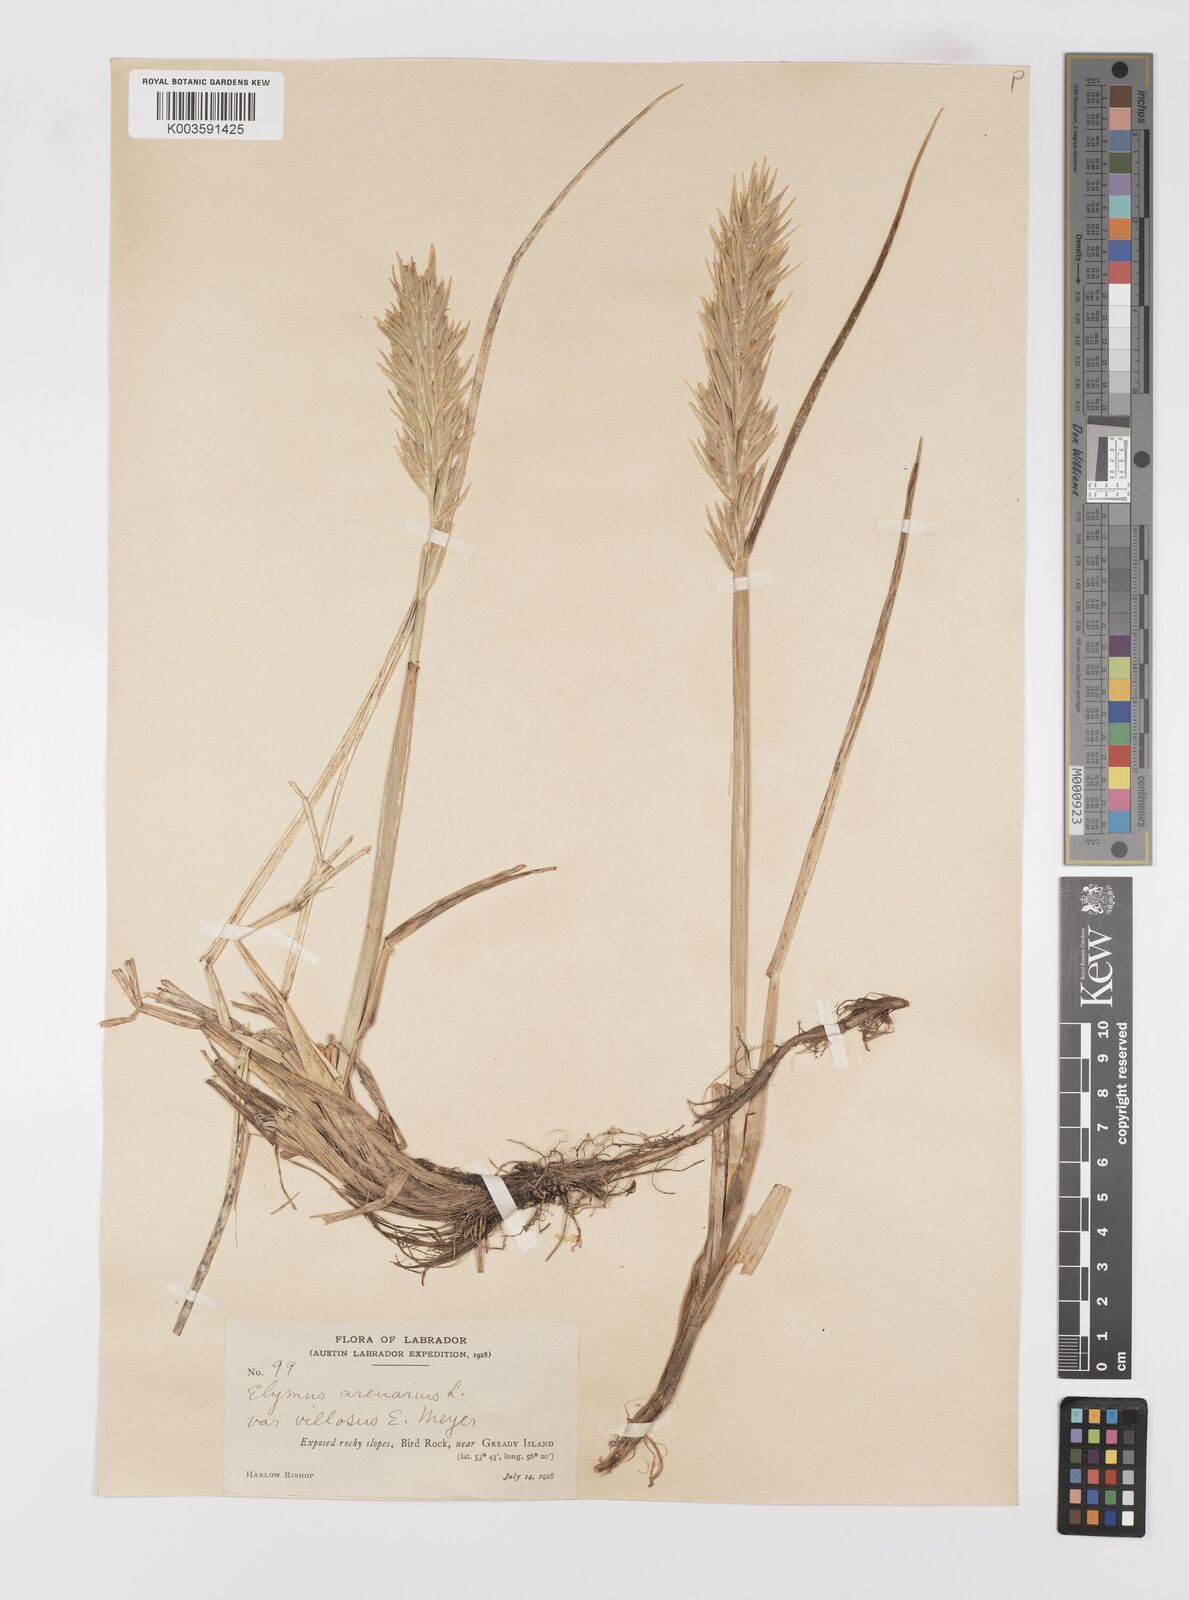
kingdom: Plantae
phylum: Tracheophyta
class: Liliopsida
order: Poales
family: Poaceae
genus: Leymus
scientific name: Leymus mollis
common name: American dune grass
